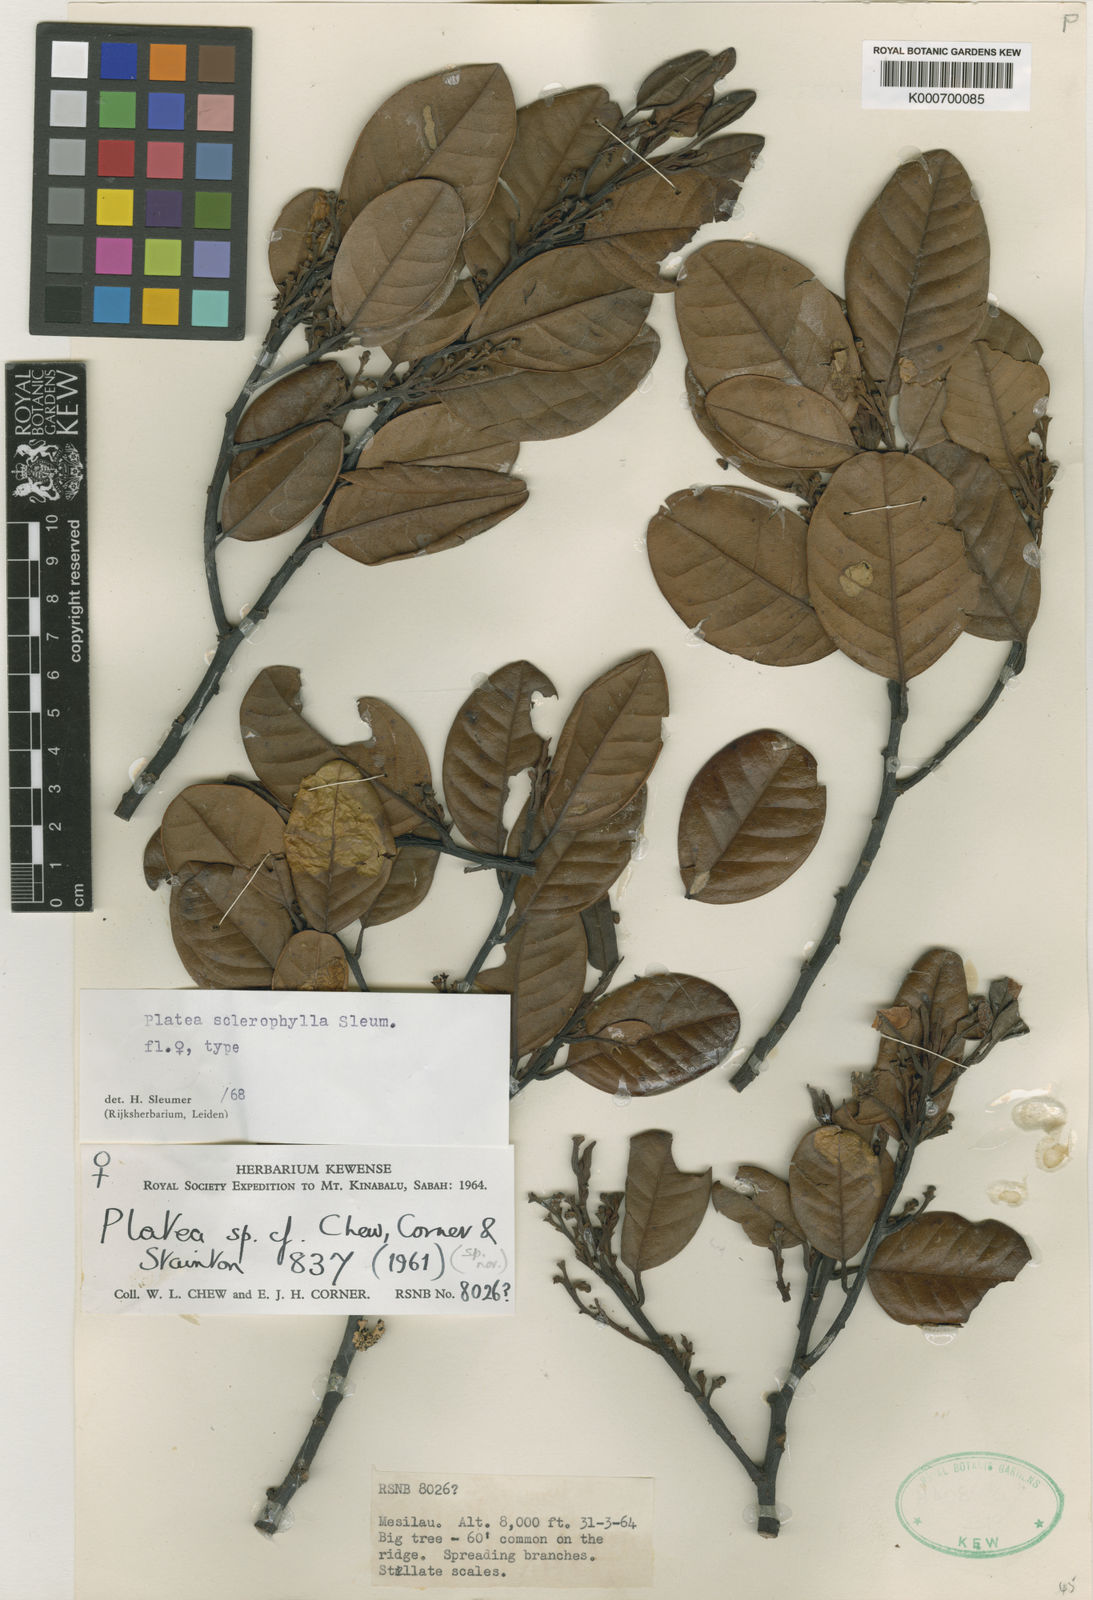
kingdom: Plantae
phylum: Tracheophyta
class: Magnoliopsida
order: Metteniusales
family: Metteniusaceae
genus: Platea
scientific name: Platea sclerophylla
